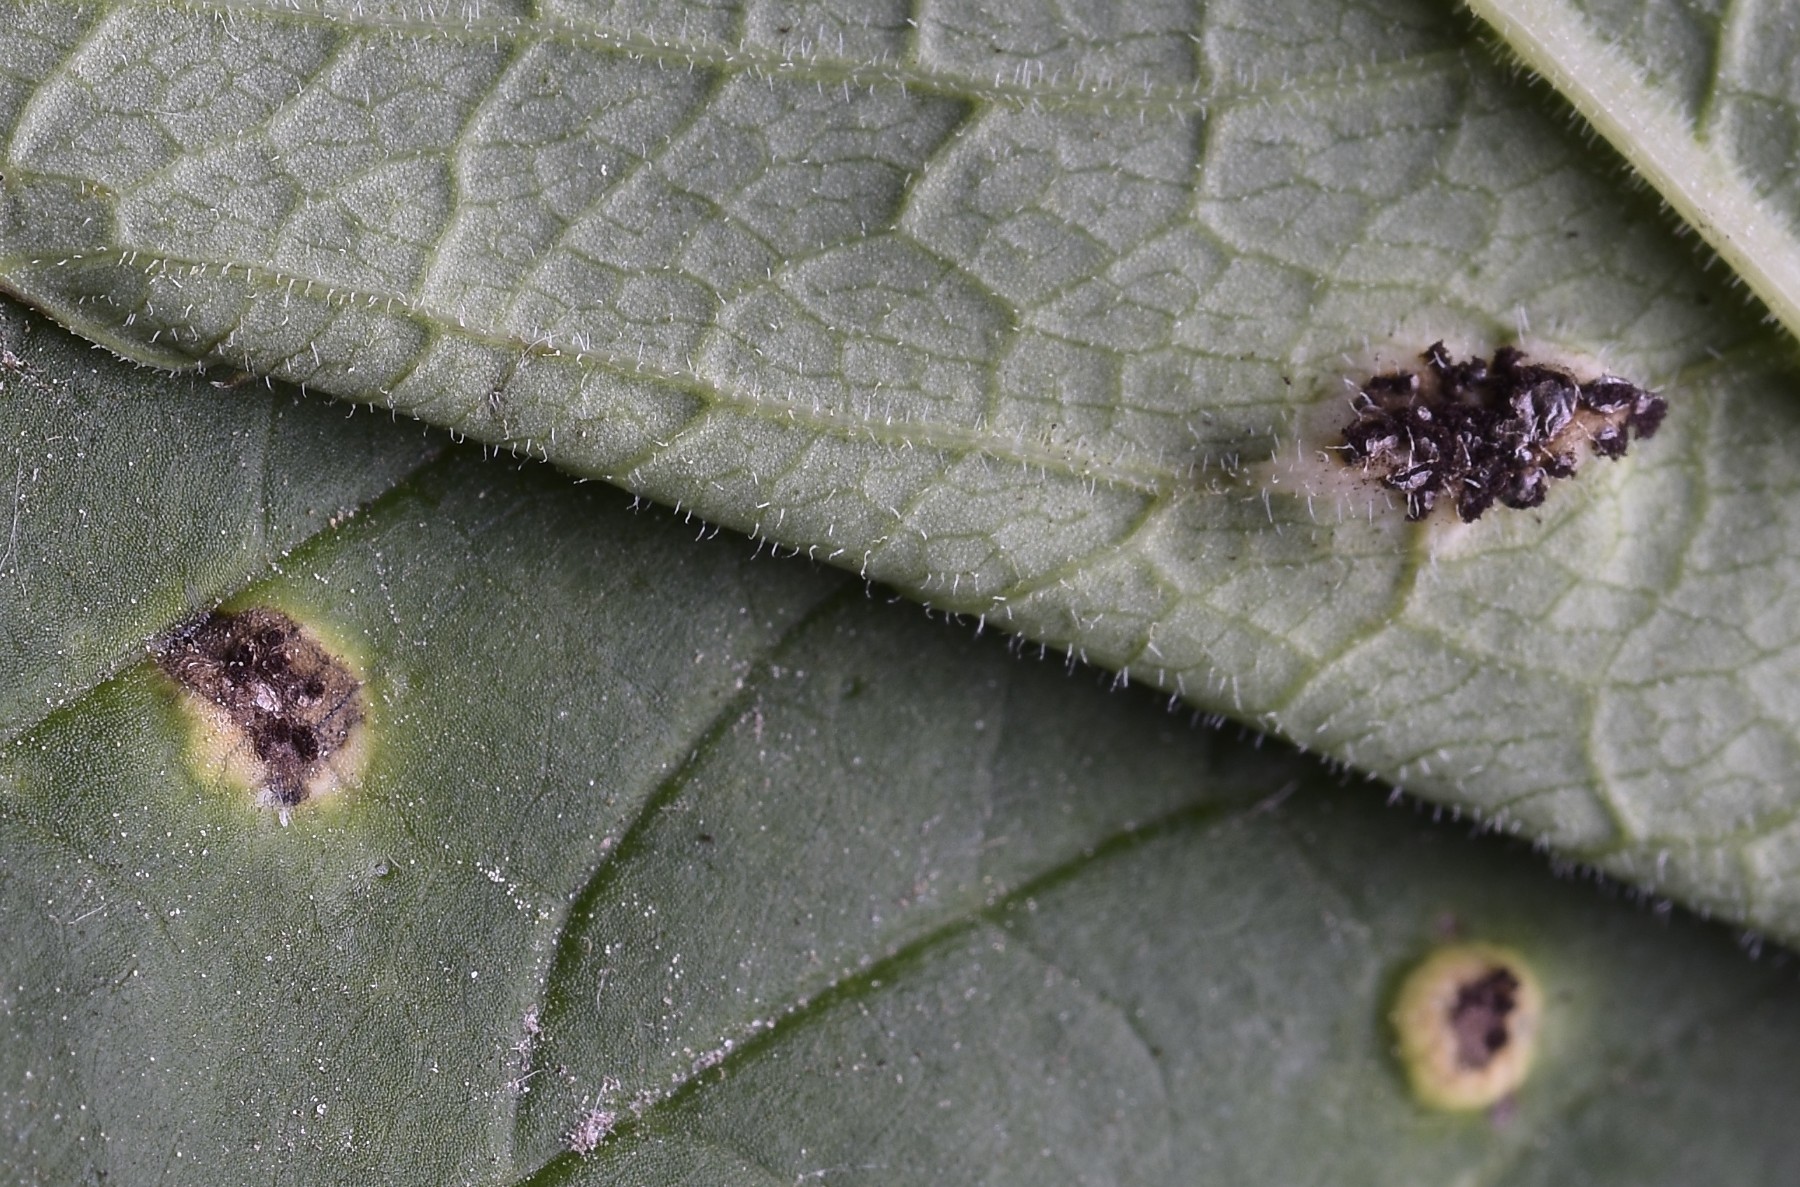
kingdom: Fungi
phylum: Basidiomycota
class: Pucciniomycetes
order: Pucciniales
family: Pucciniaceae
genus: Puccinia
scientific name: Puccinia
